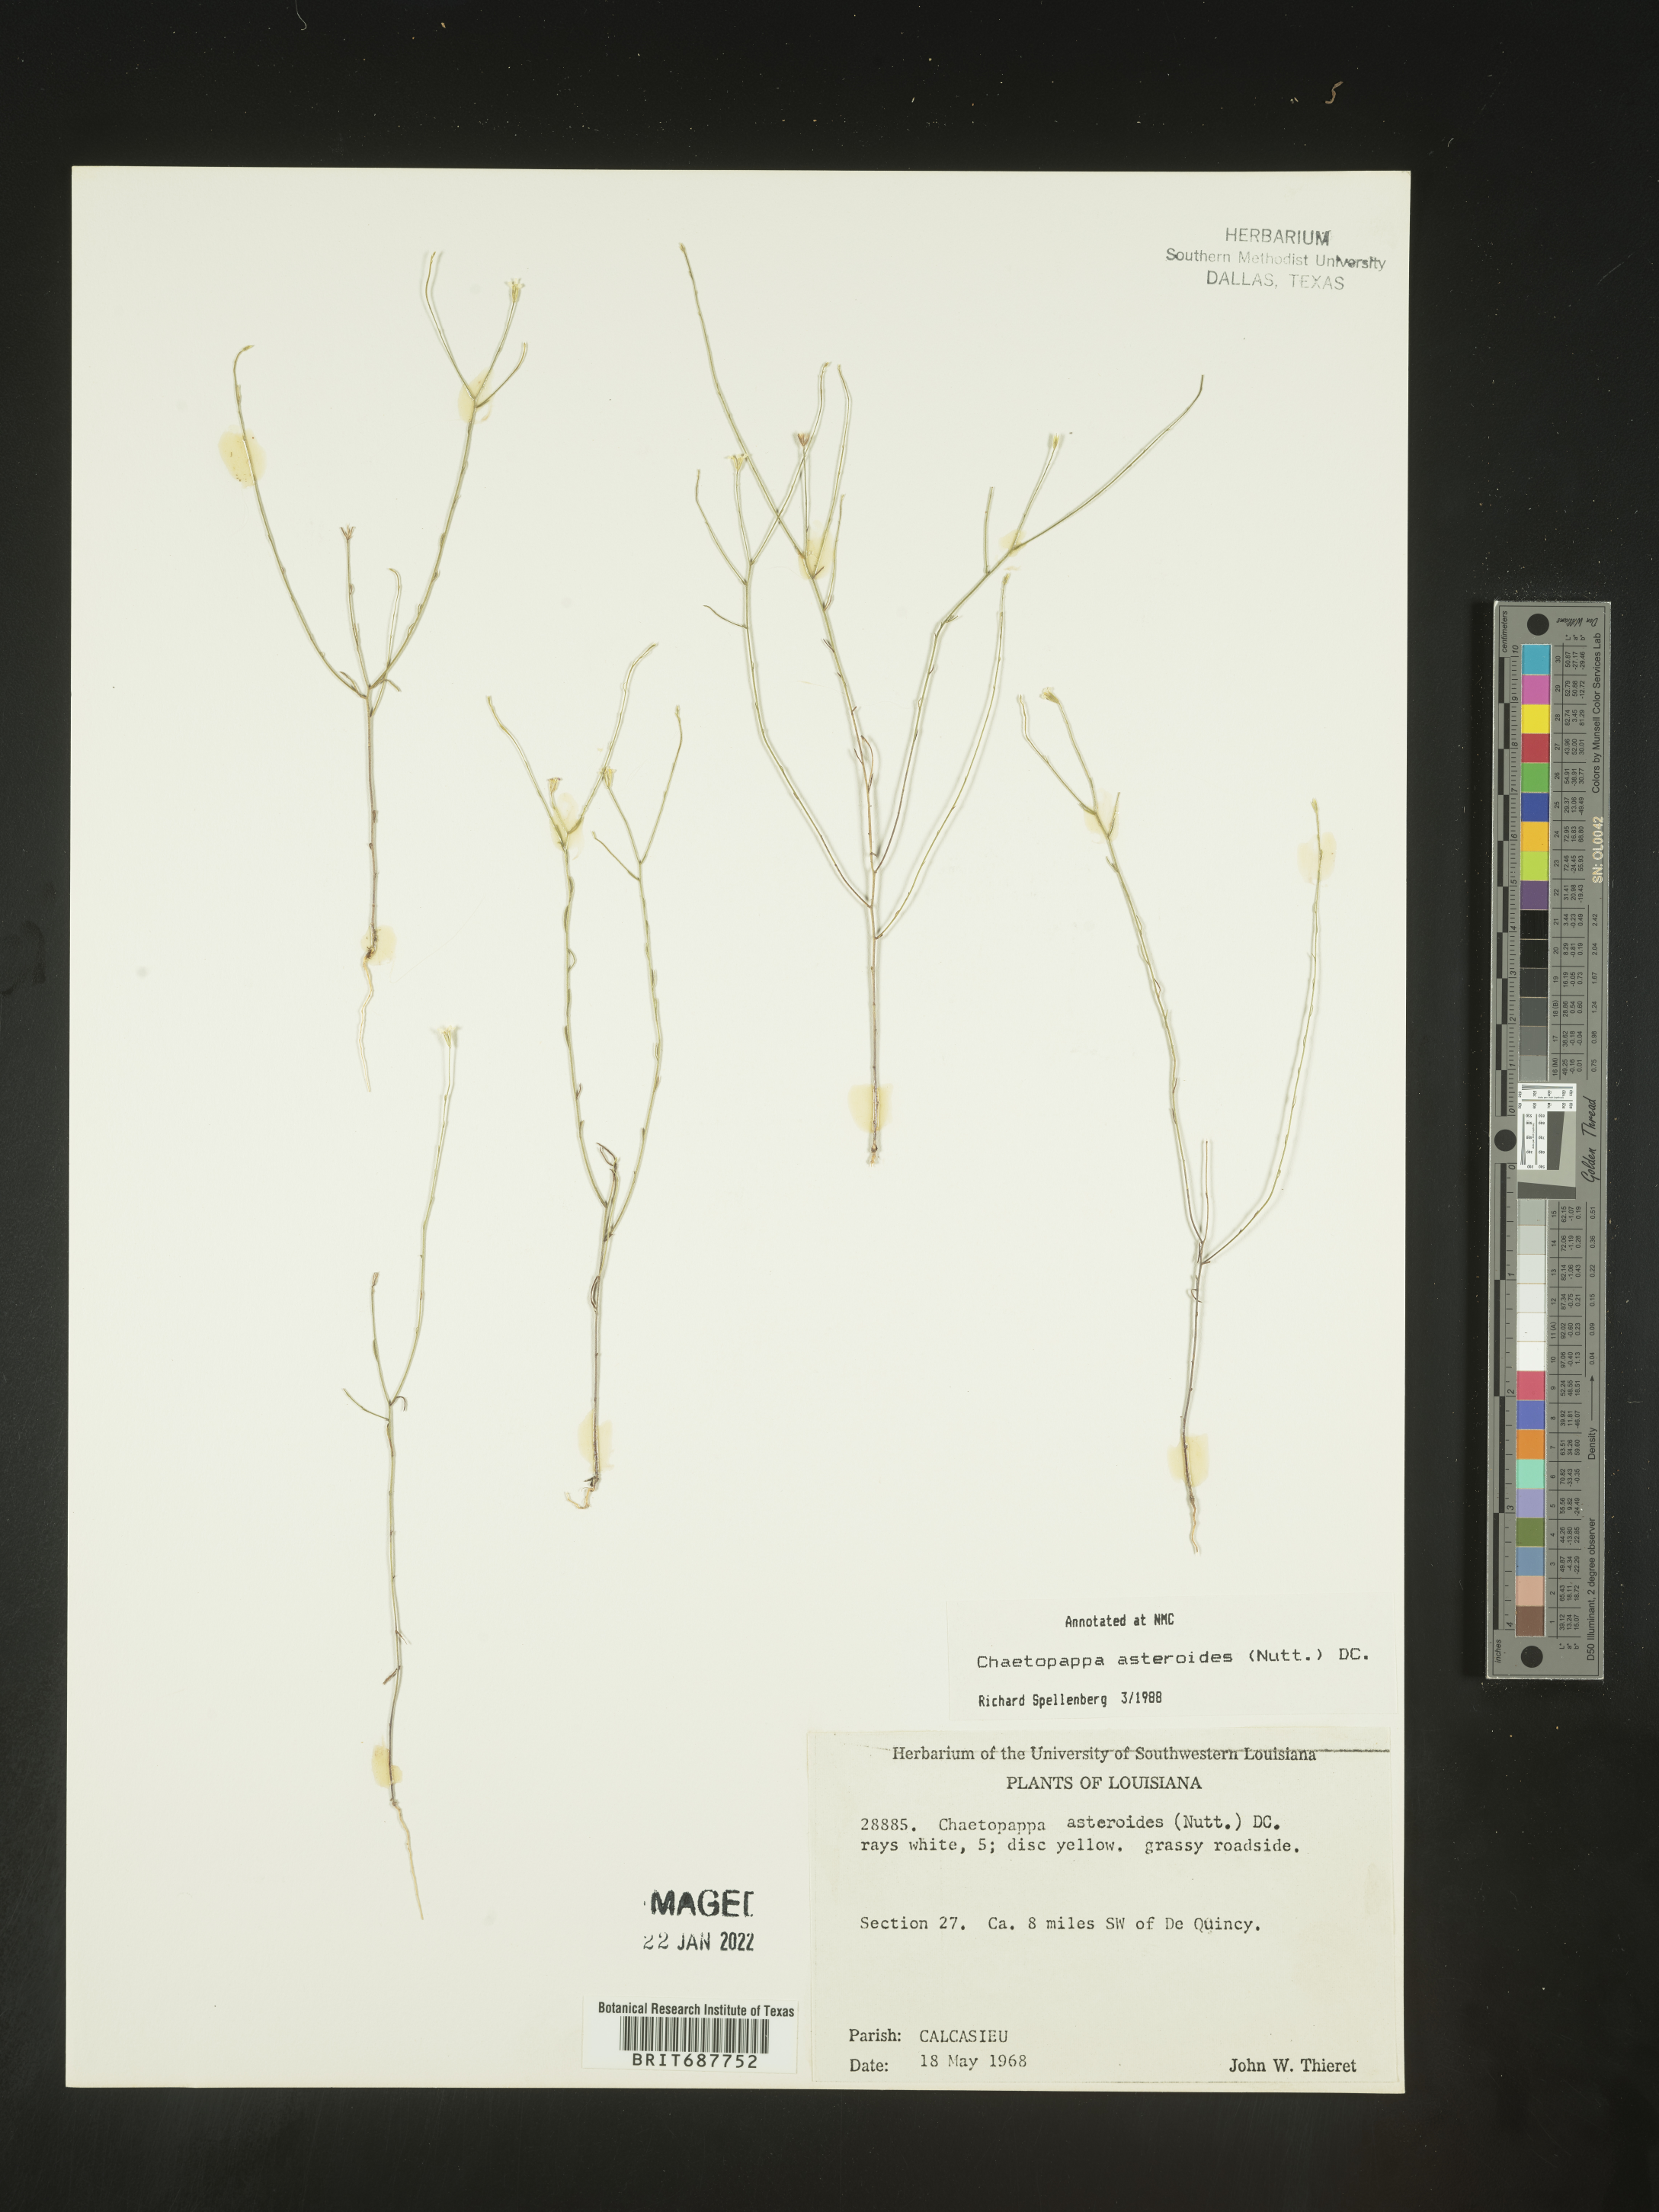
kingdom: Plantae
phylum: Tracheophyta
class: Magnoliopsida
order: Asterales
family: Asteraceae
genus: Chaetopappa
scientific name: Chaetopappa asteroides
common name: Tiny lazy daisy
